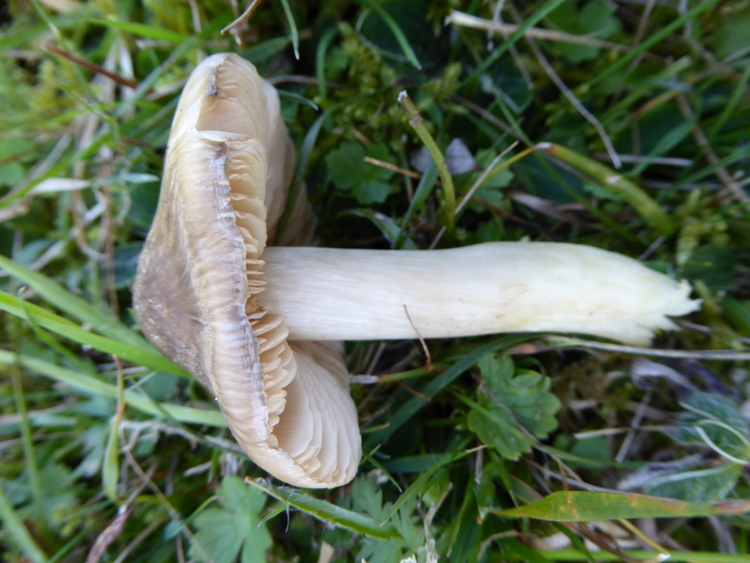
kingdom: Fungi
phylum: Basidiomycota
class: Agaricomycetes
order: Agaricales
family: Entolomataceae
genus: Entoloma
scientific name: Entoloma prunuloides
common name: mel-rødblad
